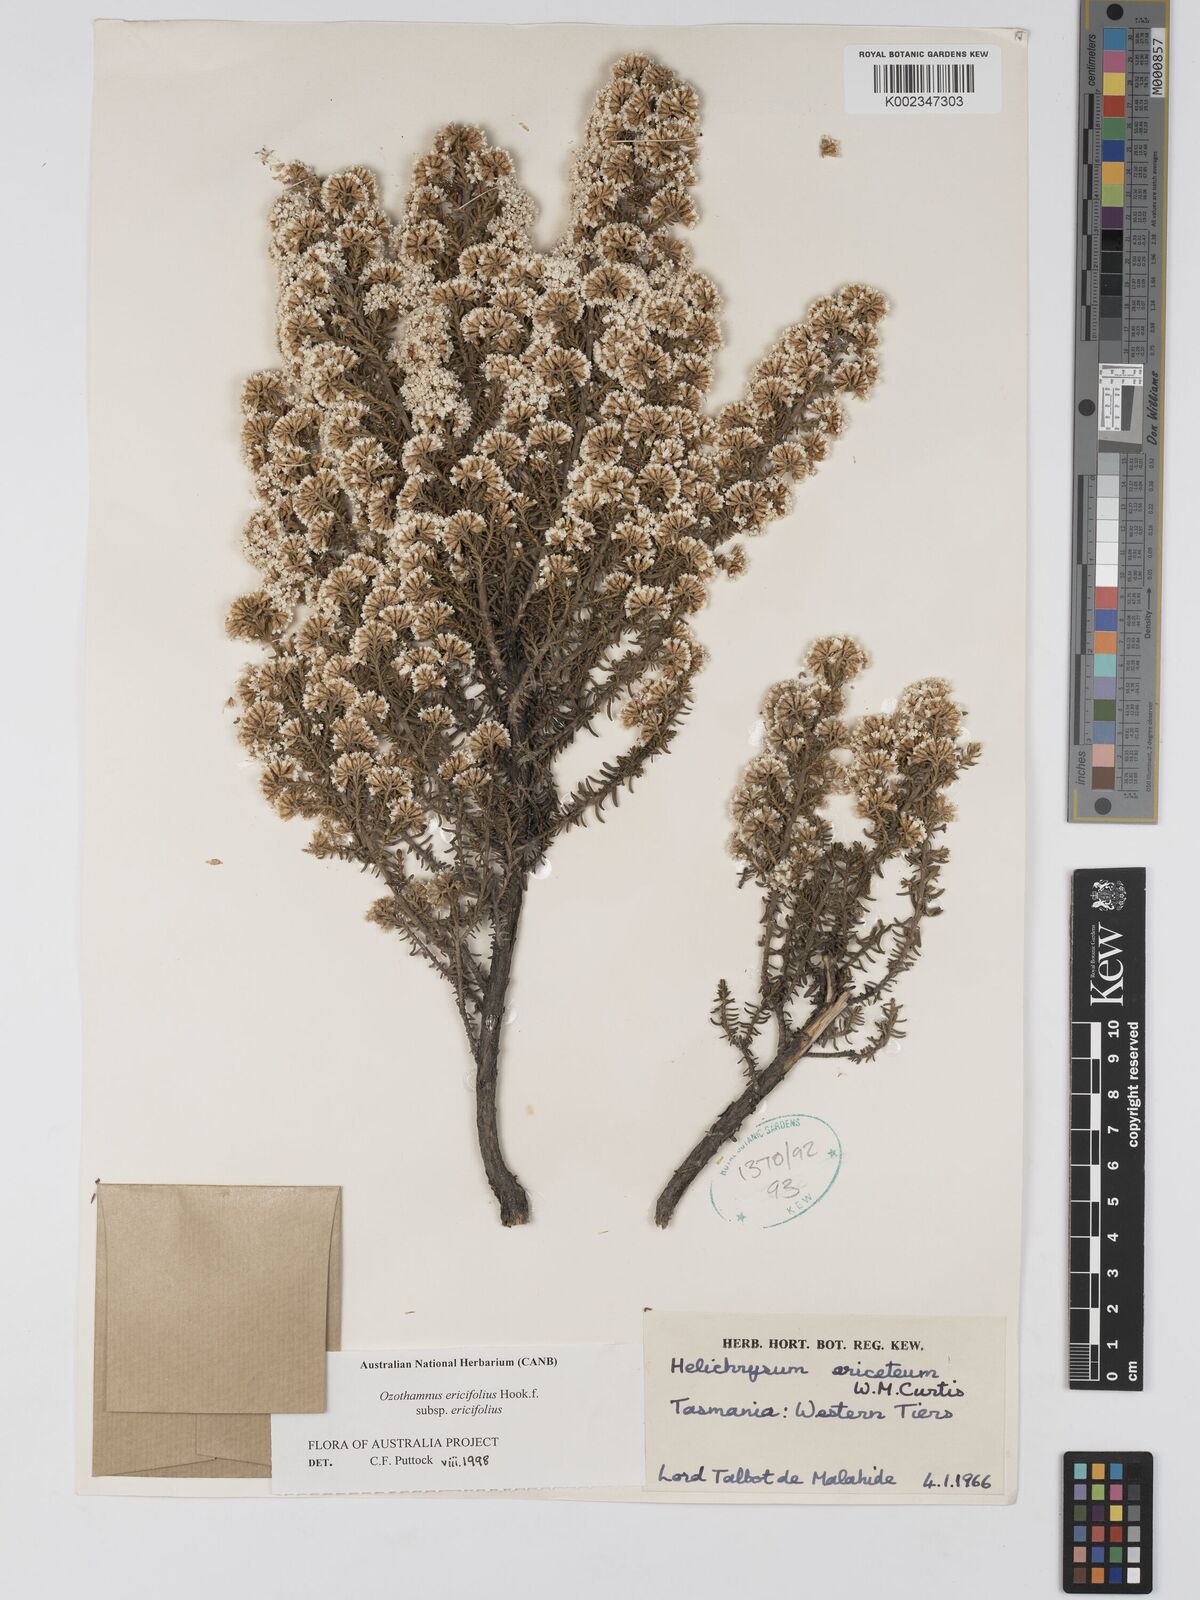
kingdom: Plantae
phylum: Tracheophyta
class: Magnoliopsida
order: Asterales
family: Asteraceae
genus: Ozothamnus
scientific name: Ozothamnus ericifolius
